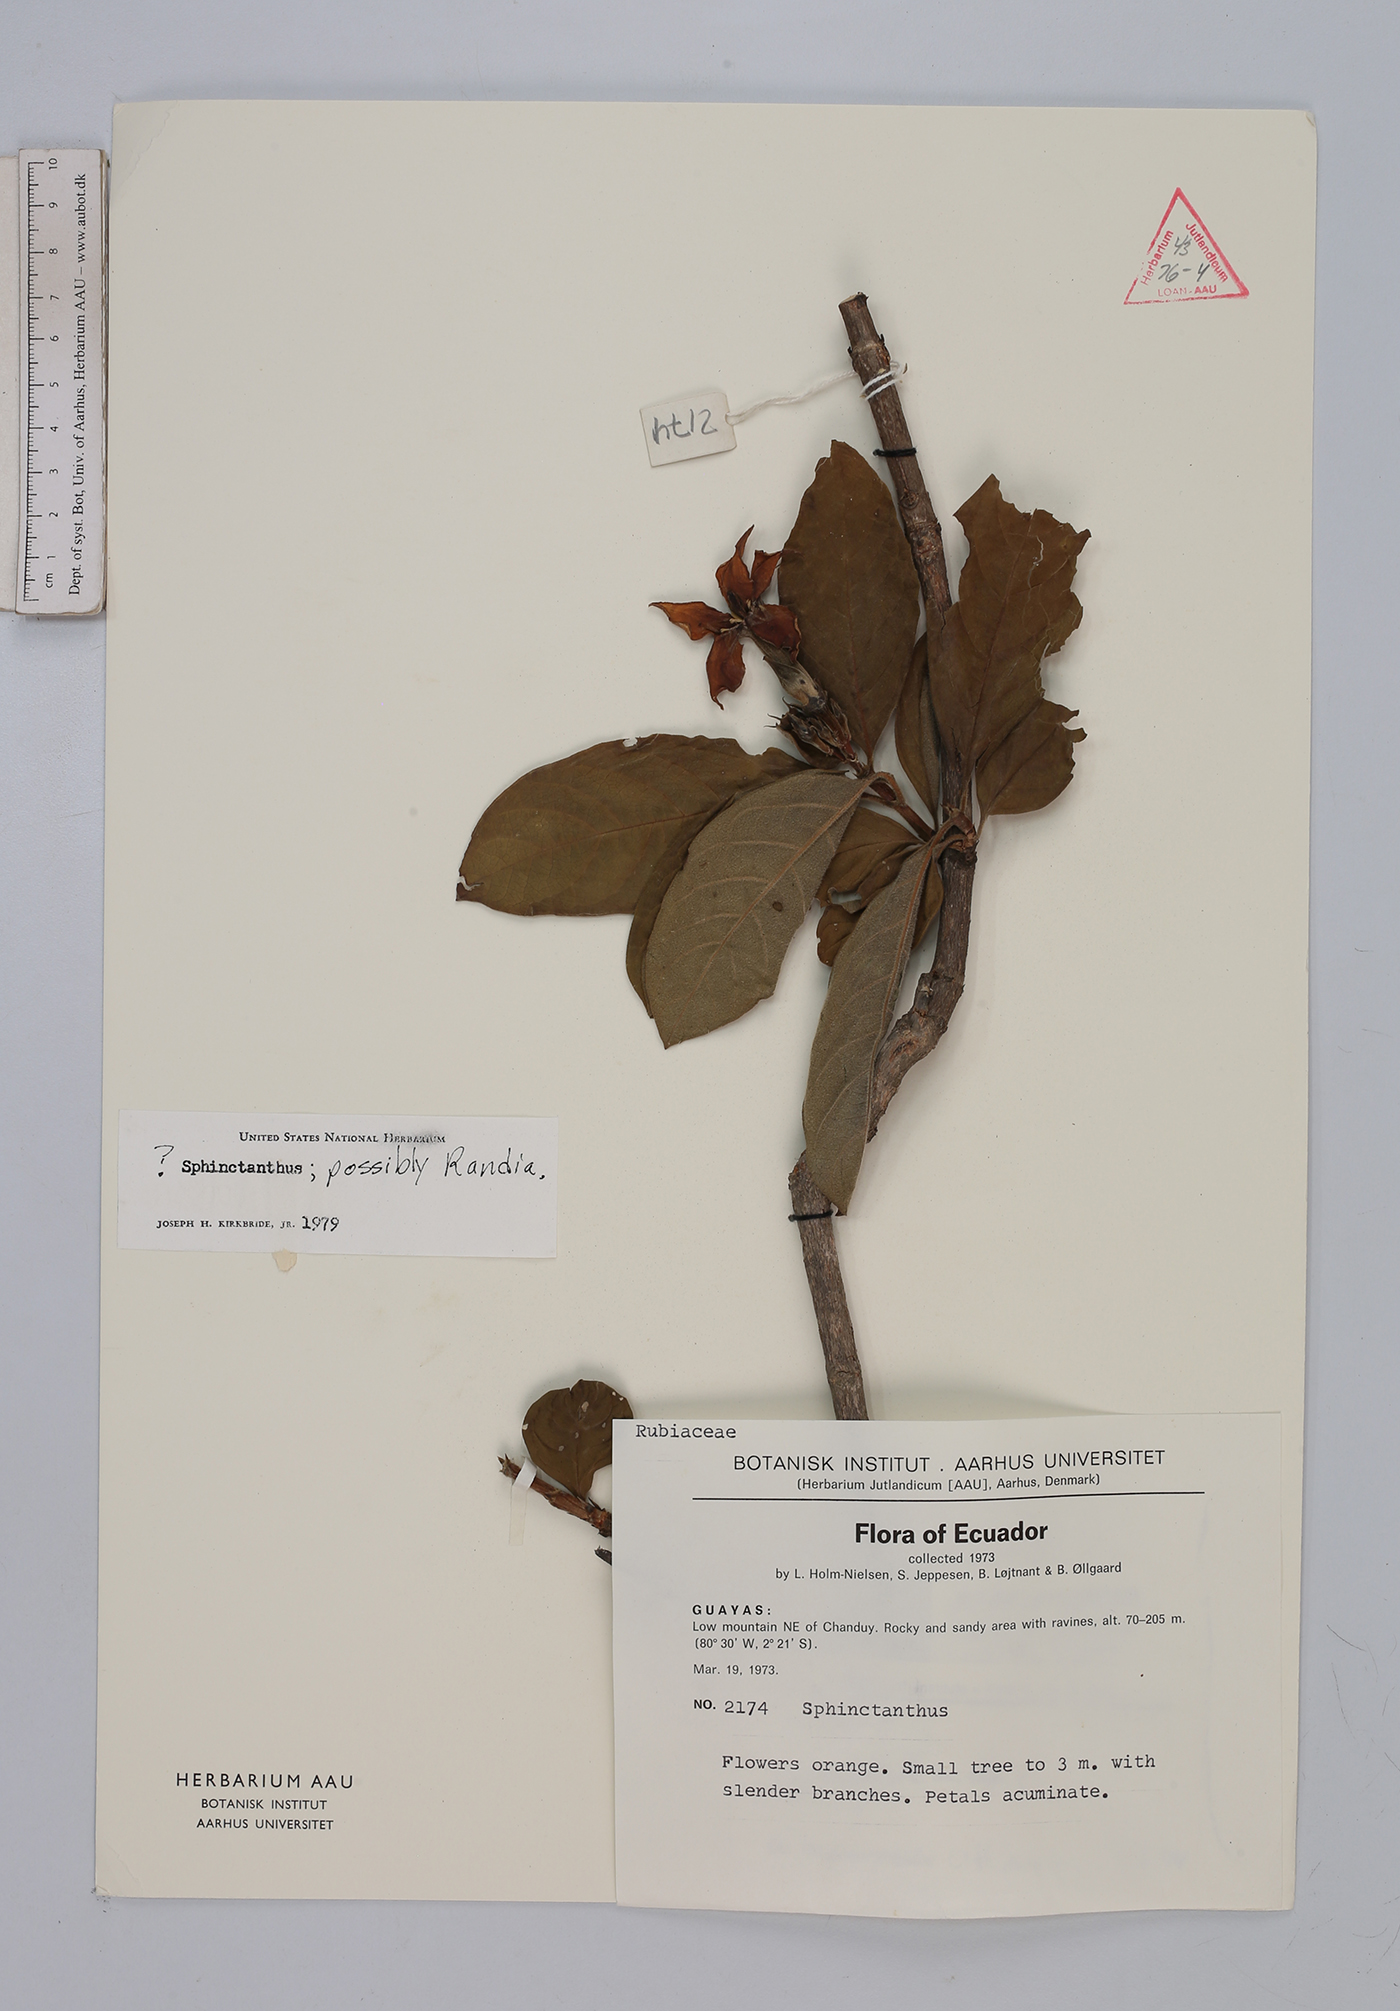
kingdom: Plantae
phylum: Tracheophyta
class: Magnoliopsida
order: Gentianales
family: Rubiaceae
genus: Randia
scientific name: Randia
